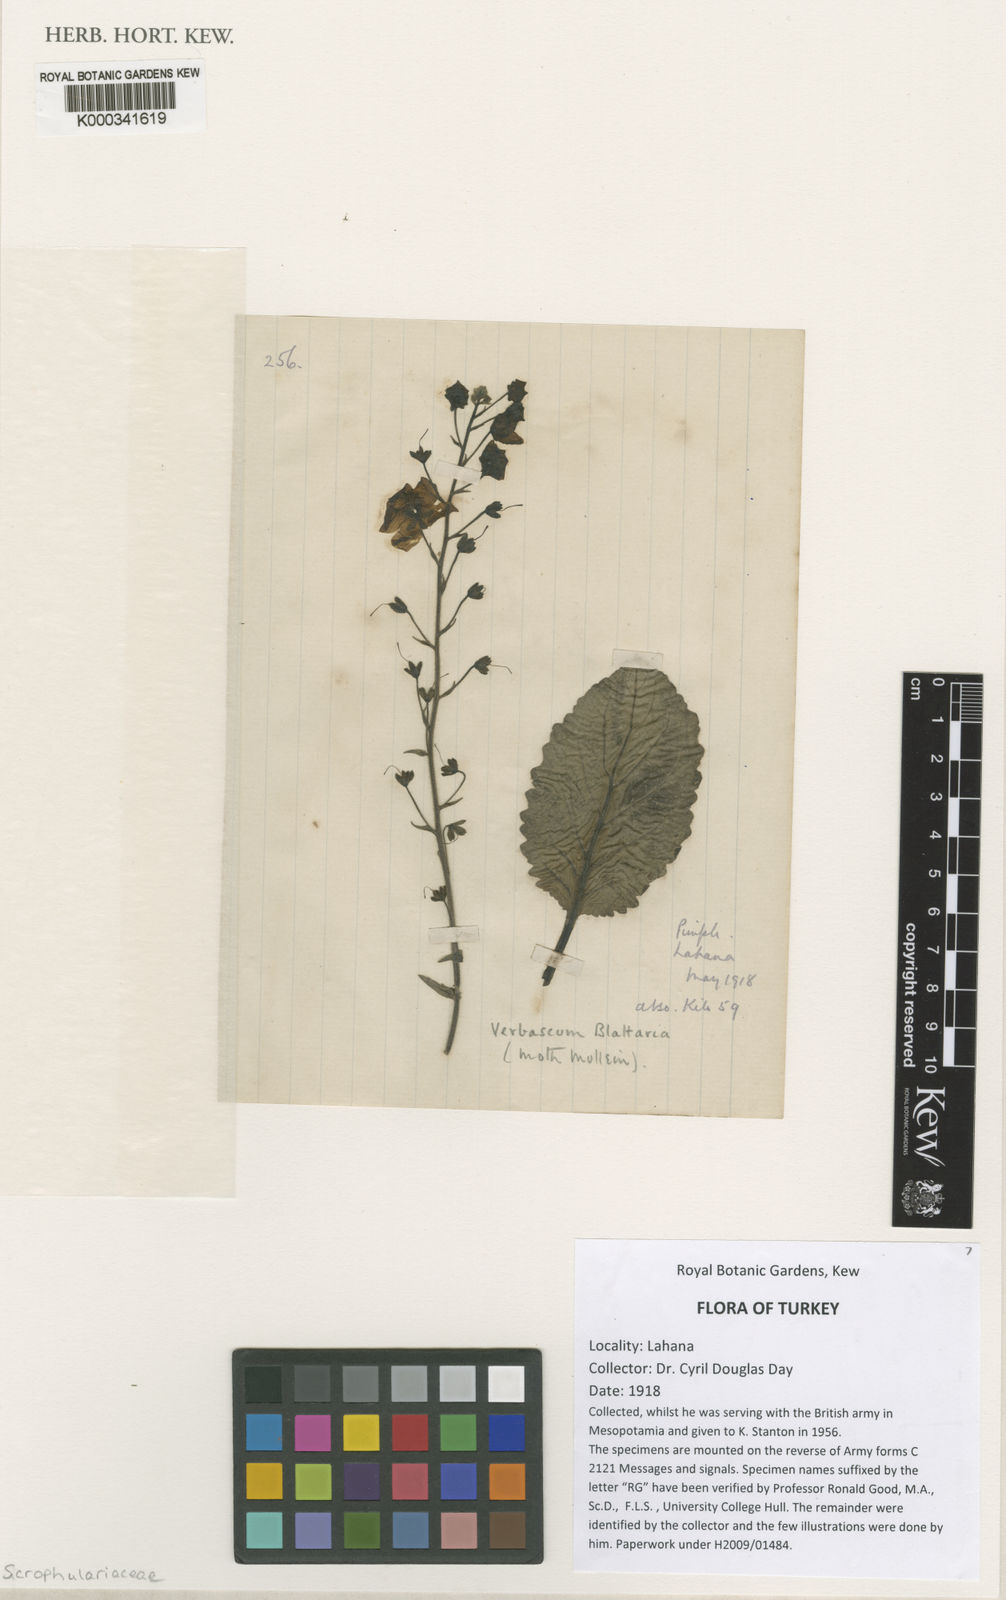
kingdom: Plantae
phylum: Tracheophyta
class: Magnoliopsida
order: Lamiales
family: Scrophulariaceae
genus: Verbascum
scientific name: Verbascum blattaria
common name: Moth mullein
